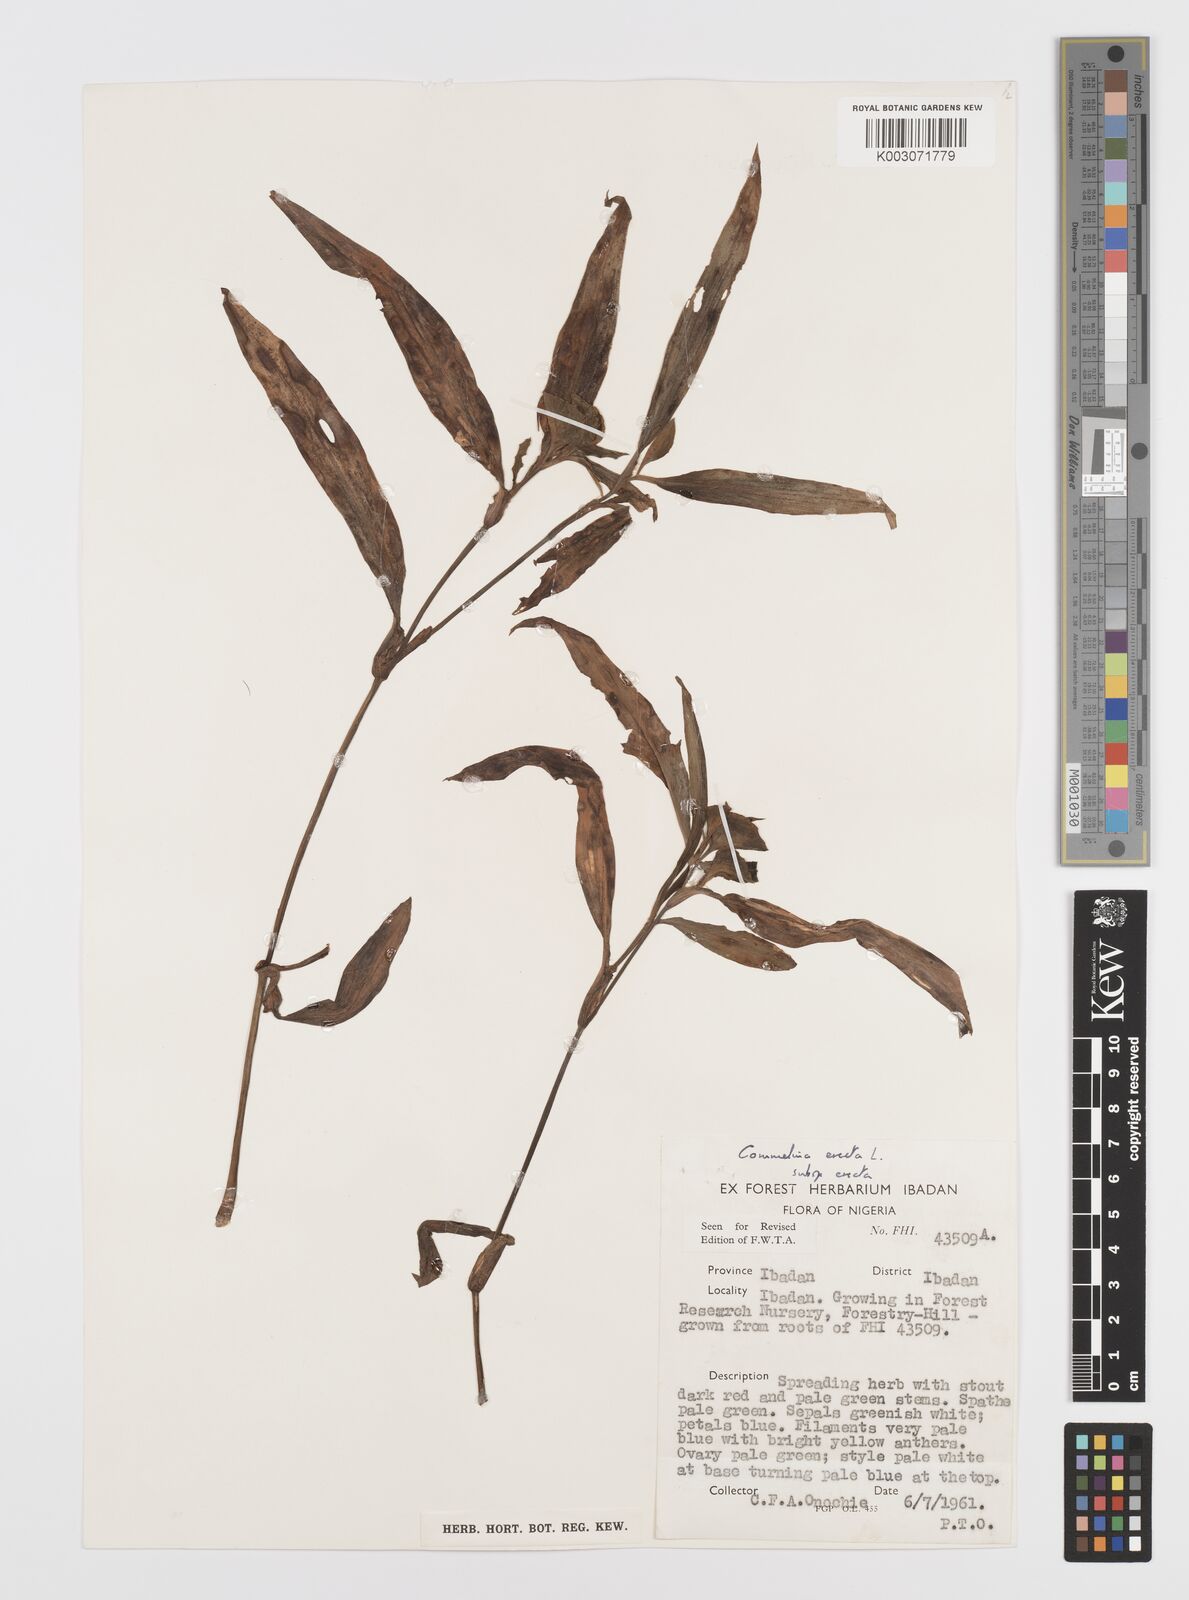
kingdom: Plantae
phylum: Tracheophyta
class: Liliopsida
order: Commelinales
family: Commelinaceae
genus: Commelina
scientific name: Commelina erecta
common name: Blousel blommetjie
